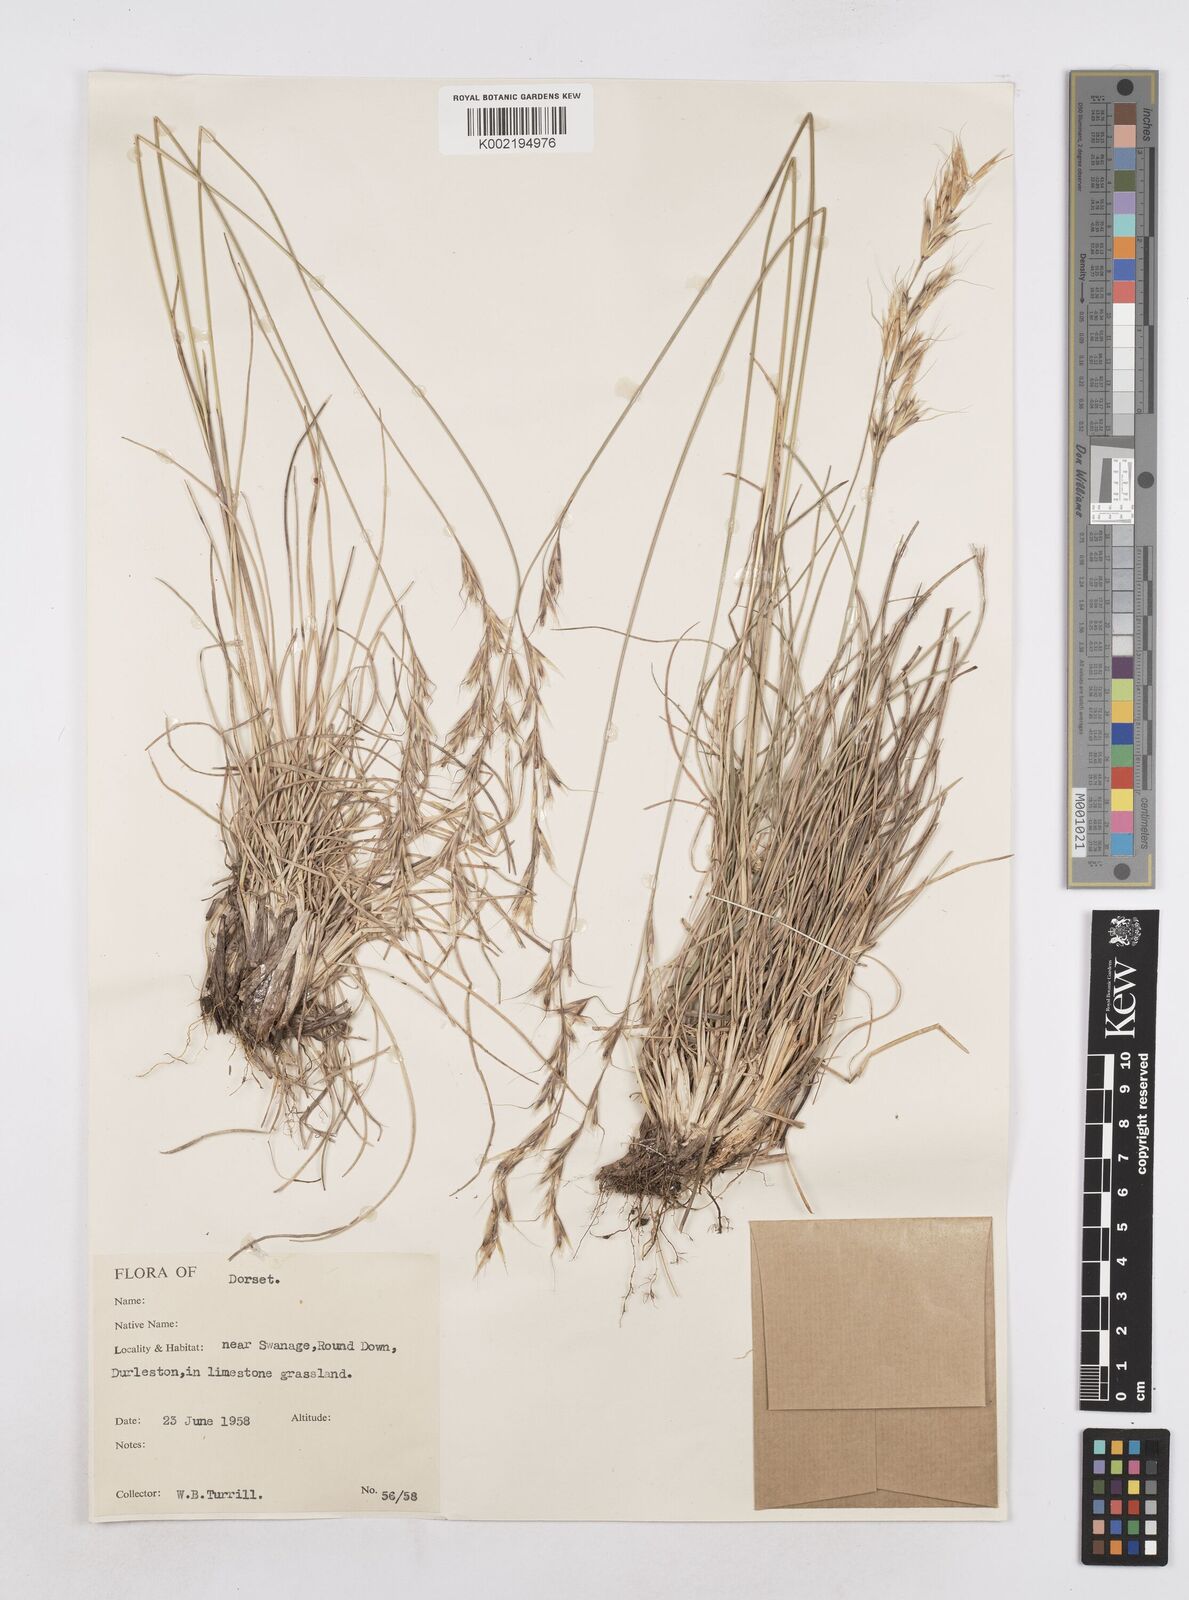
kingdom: Plantae
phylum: Tracheophyta
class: Liliopsida
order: Poales
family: Poaceae
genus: Helictochloa
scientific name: Helictochloa pratensis
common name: Meadow oat grass
